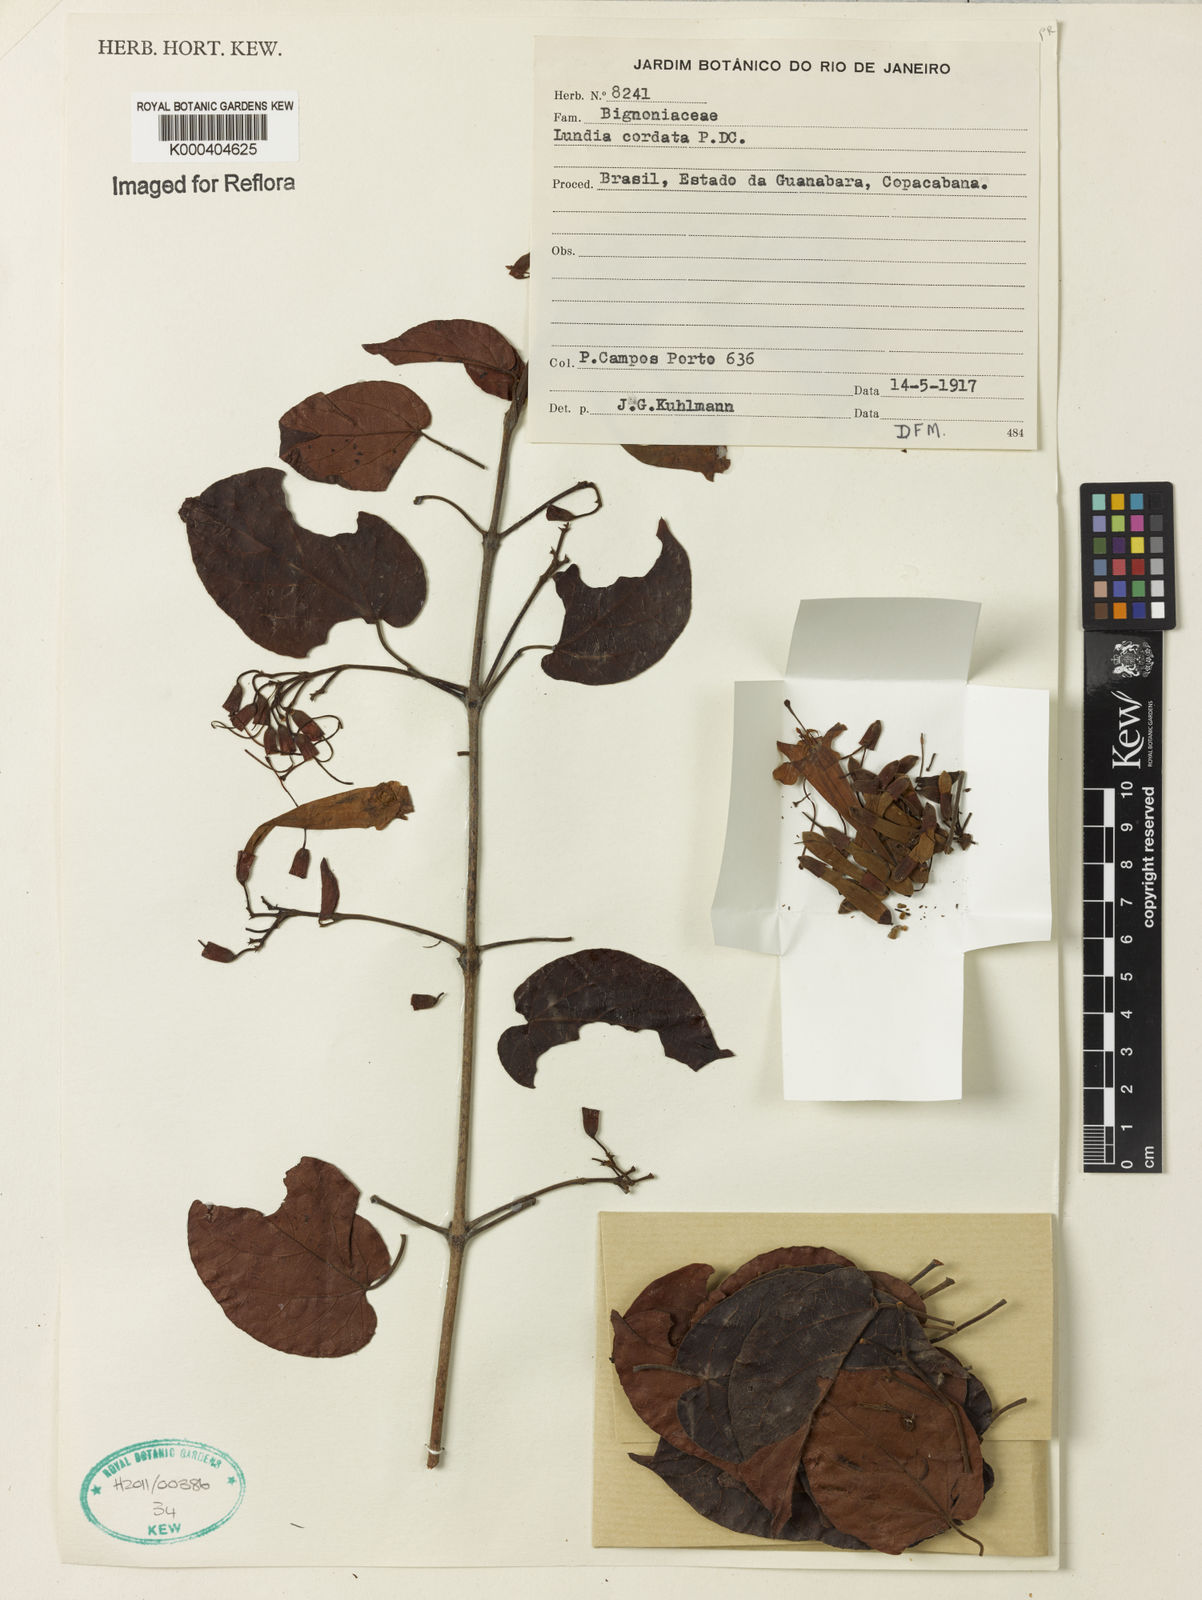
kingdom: Plantae
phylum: Tracheophyta
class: Magnoliopsida
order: Lamiales
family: Bignoniaceae
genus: Lundia
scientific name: Lundia corymbifera
